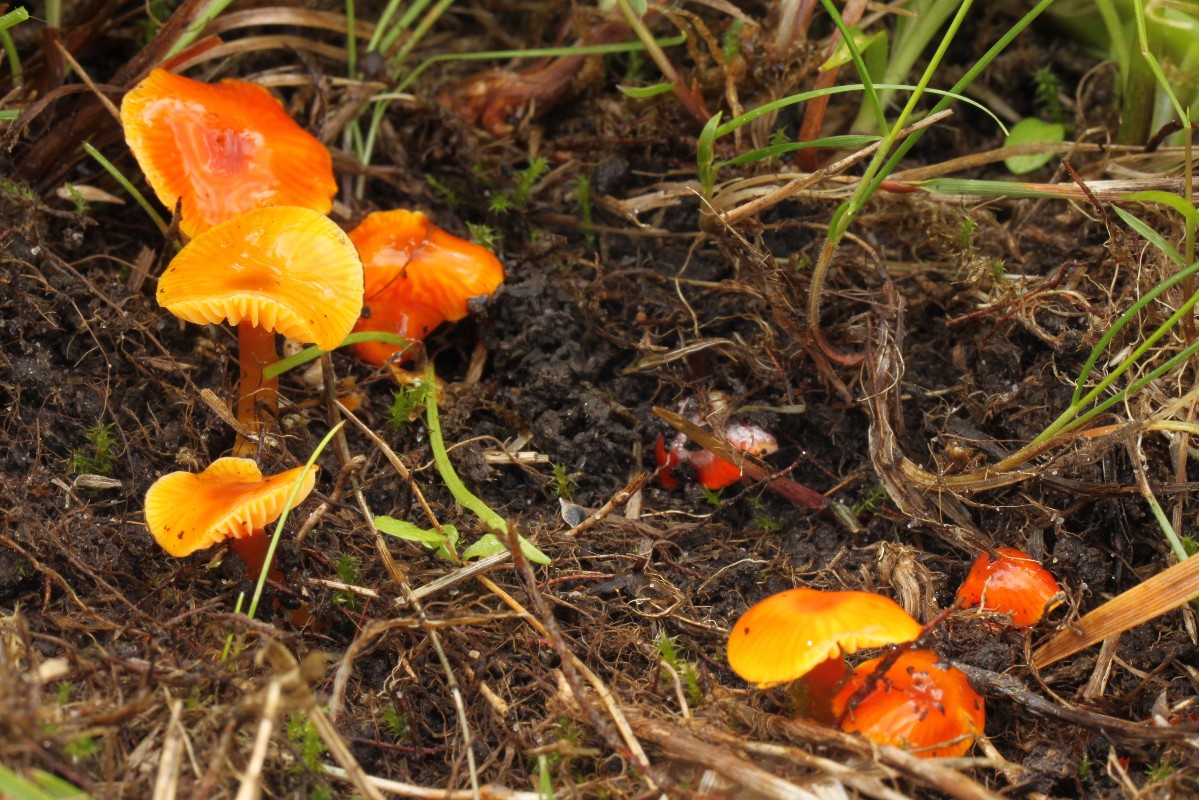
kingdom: Fungi
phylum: Basidiomycota
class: Agaricomycetes
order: Agaricales
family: Hygrophoraceae
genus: Hygrocybe
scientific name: Hygrocybe glutinipes
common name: slimstokket vokshat
